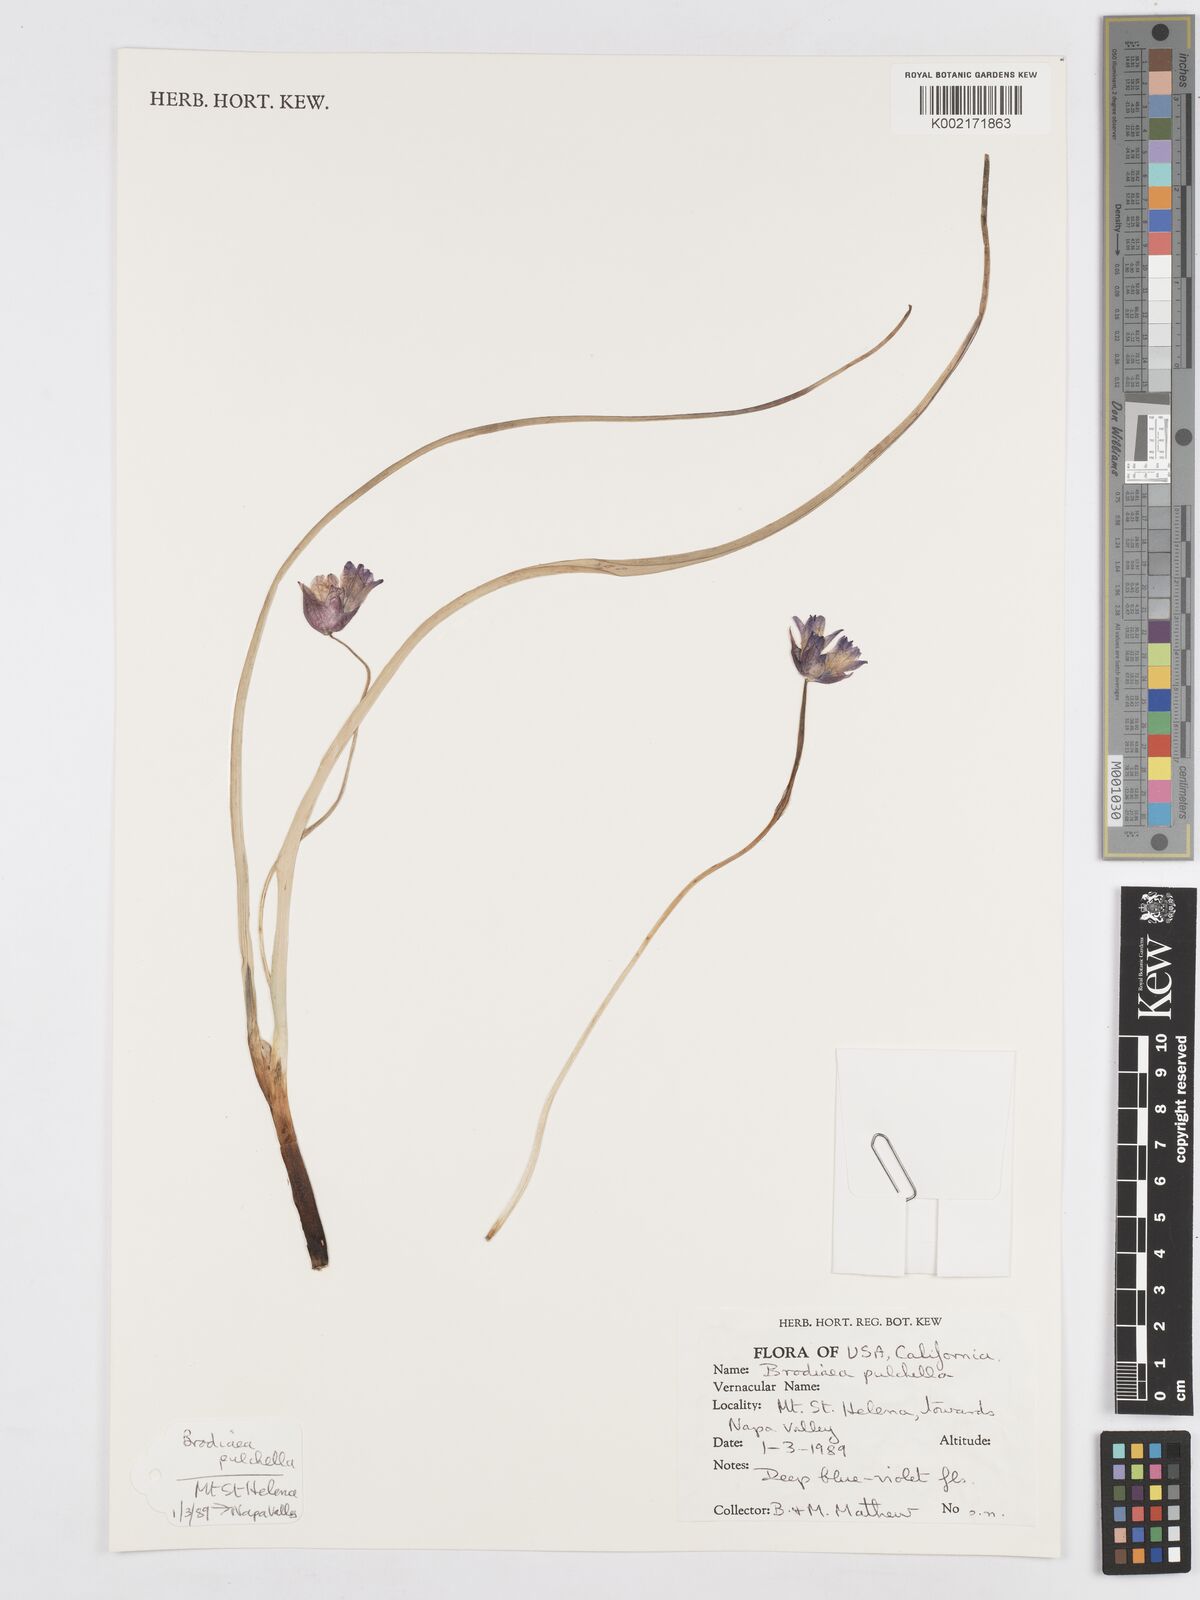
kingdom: Plantae
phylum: Tracheophyta
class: Liliopsida
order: Asparagales
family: Asparagaceae
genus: Dichelostemma
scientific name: Dichelostemma congestum
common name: Fork-tooth ookow
